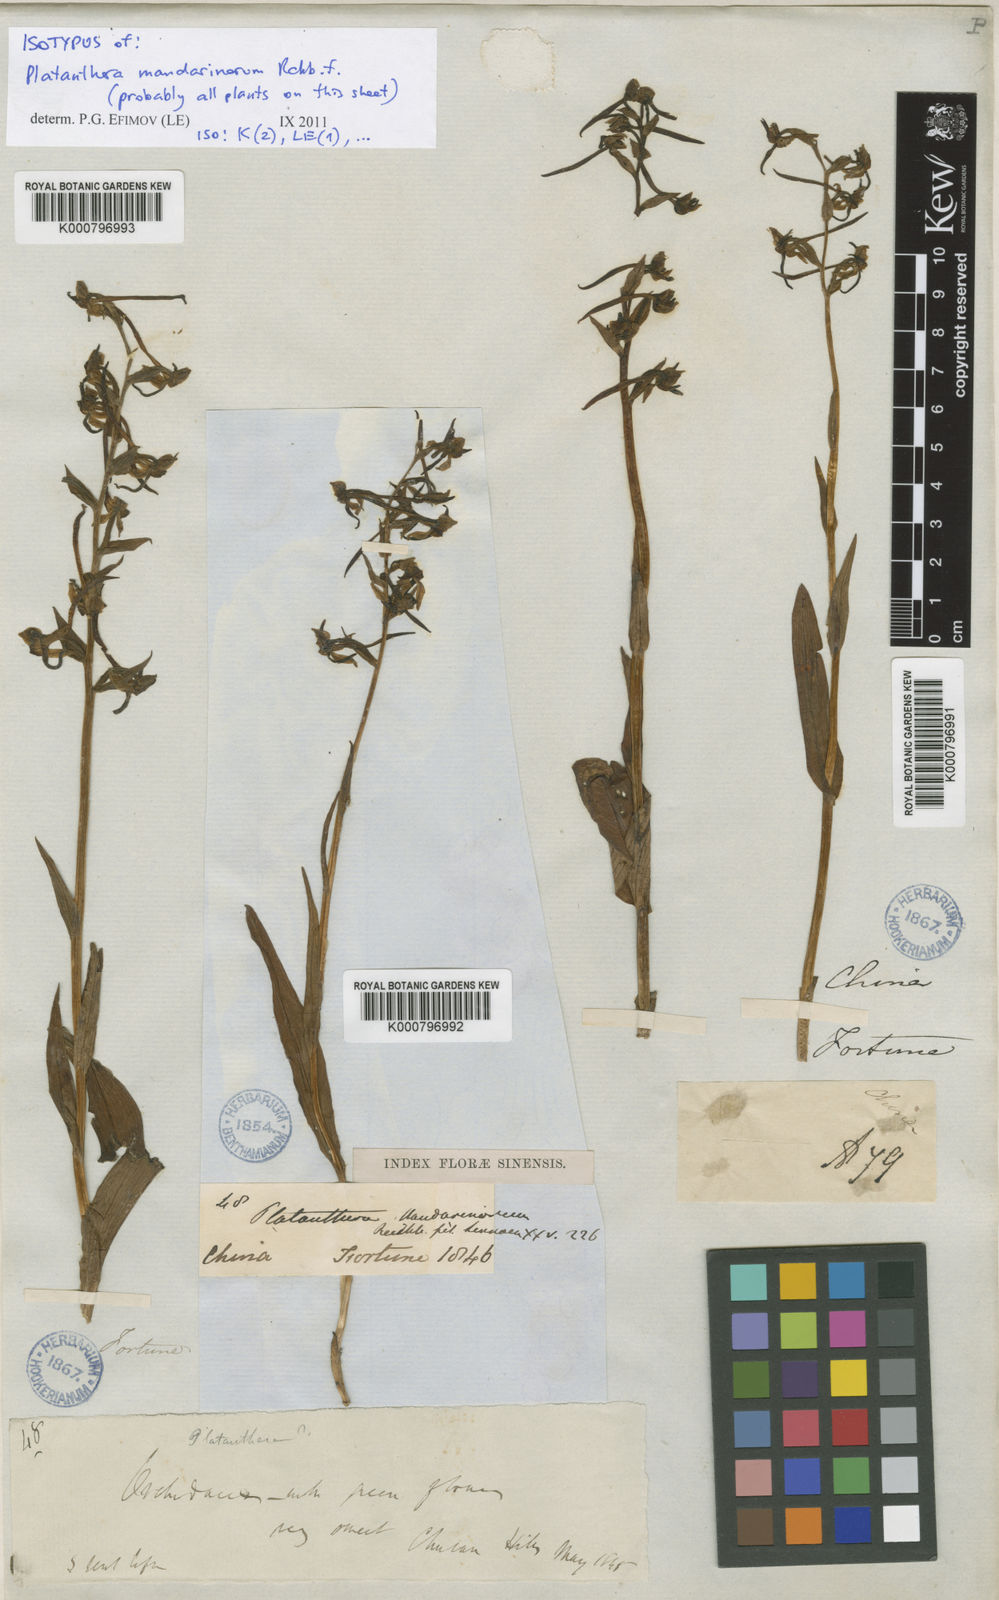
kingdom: Plantae
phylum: Tracheophyta
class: Liliopsida
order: Asparagales
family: Orchidaceae
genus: Platanthera
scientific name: Platanthera mandarinorum
